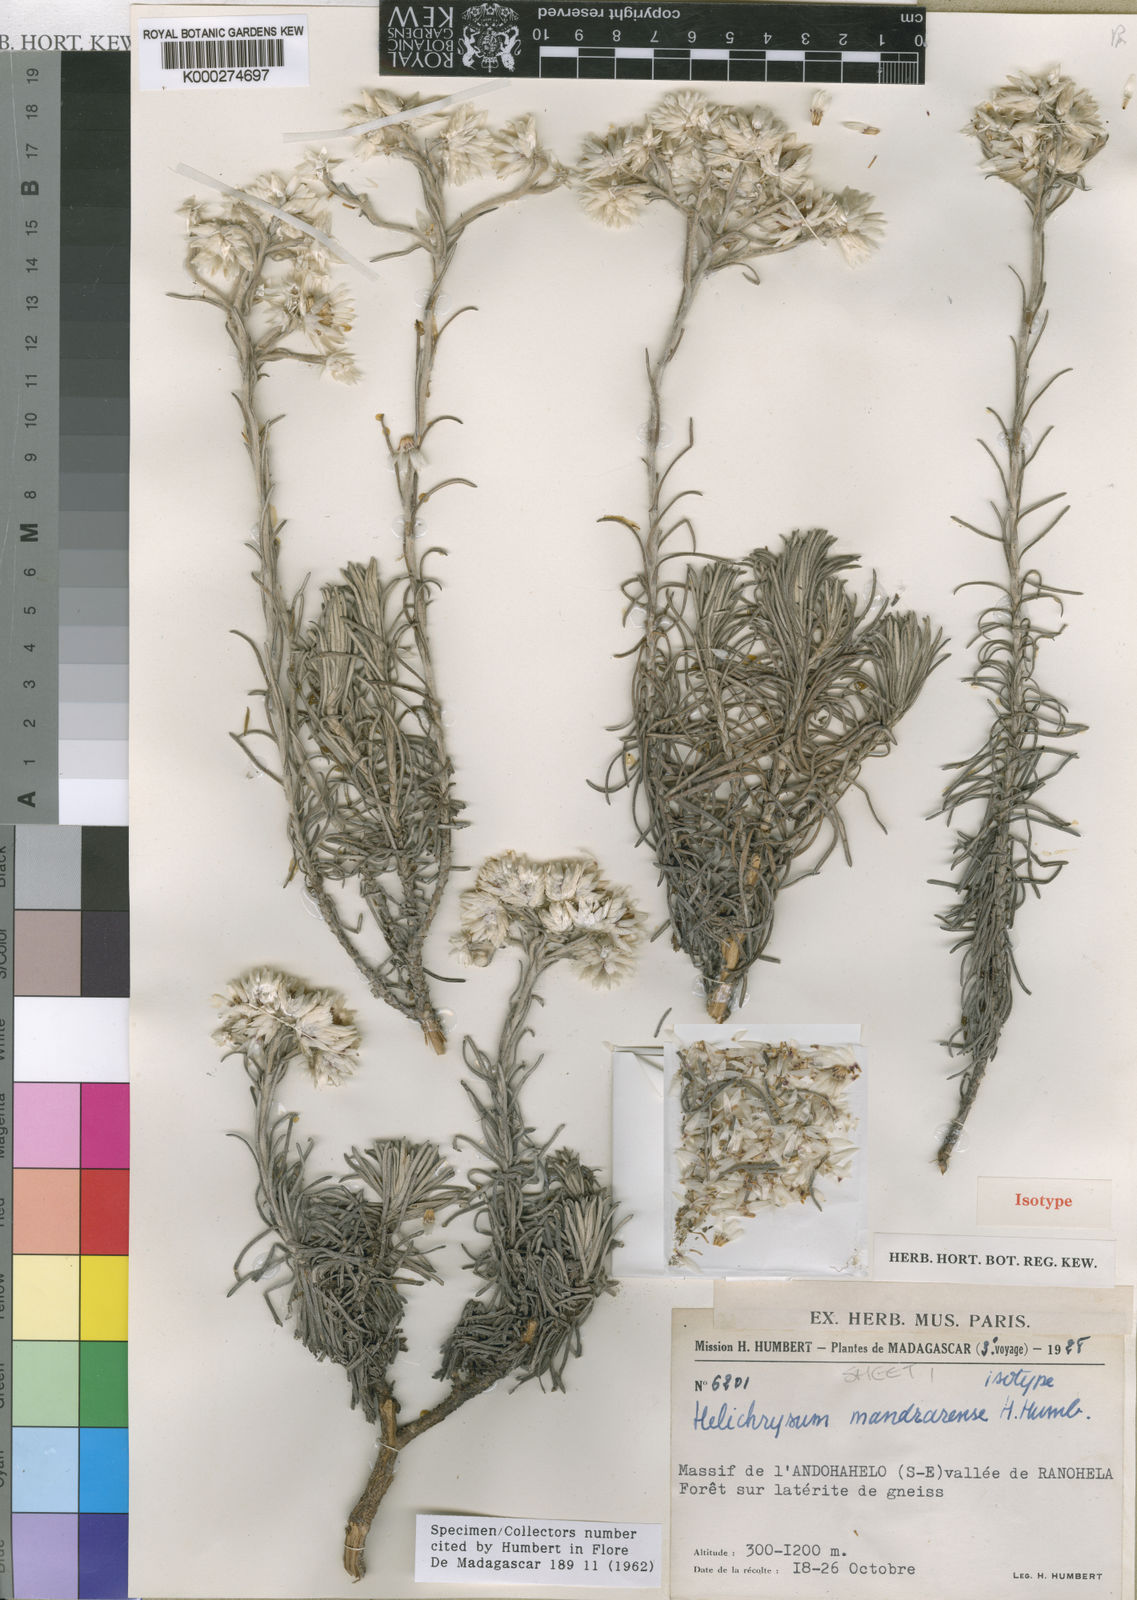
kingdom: Plantae
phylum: Tracheophyta
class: Magnoliopsida
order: Asterales
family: Asteraceae
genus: Helichrysum
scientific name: Helichrysum mandrarense
